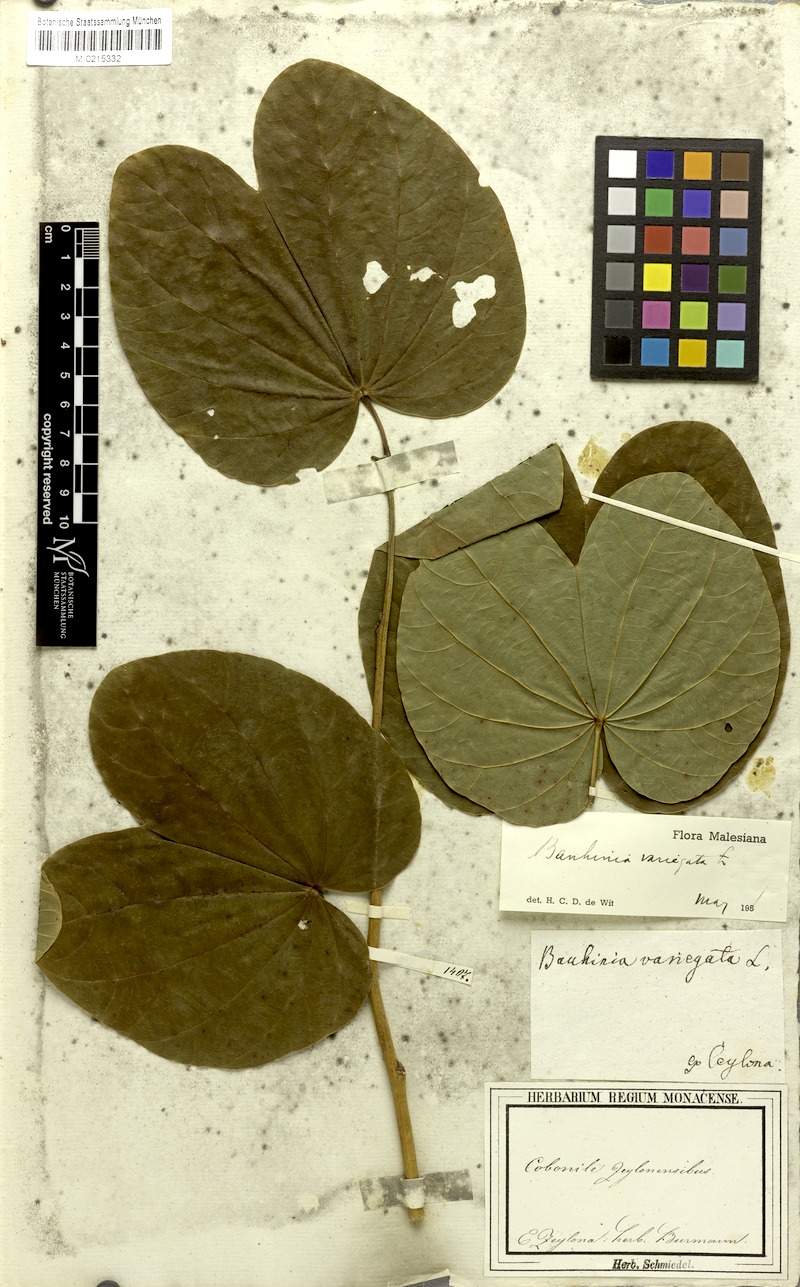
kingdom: Plantae
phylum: Tracheophyta
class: Magnoliopsida
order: Fabales
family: Fabaceae
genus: Bauhinia
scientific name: Bauhinia variegata
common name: Mountain ebony
